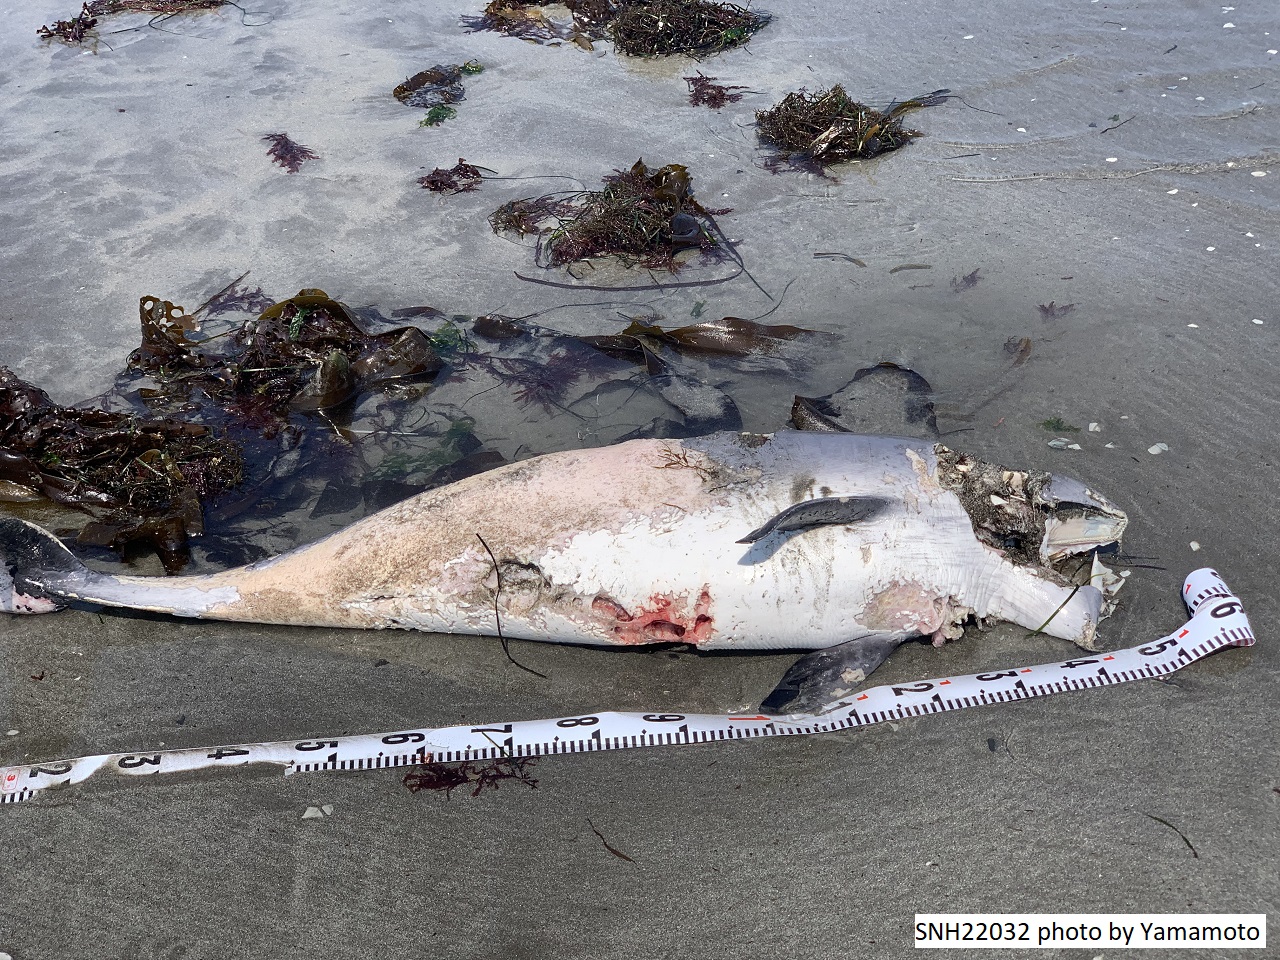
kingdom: Animalia
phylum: Chordata
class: Mammalia
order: Cetacea
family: Phocoenidae
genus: Phocoena
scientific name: Phocoena phocoena
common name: Harbour porpoise
